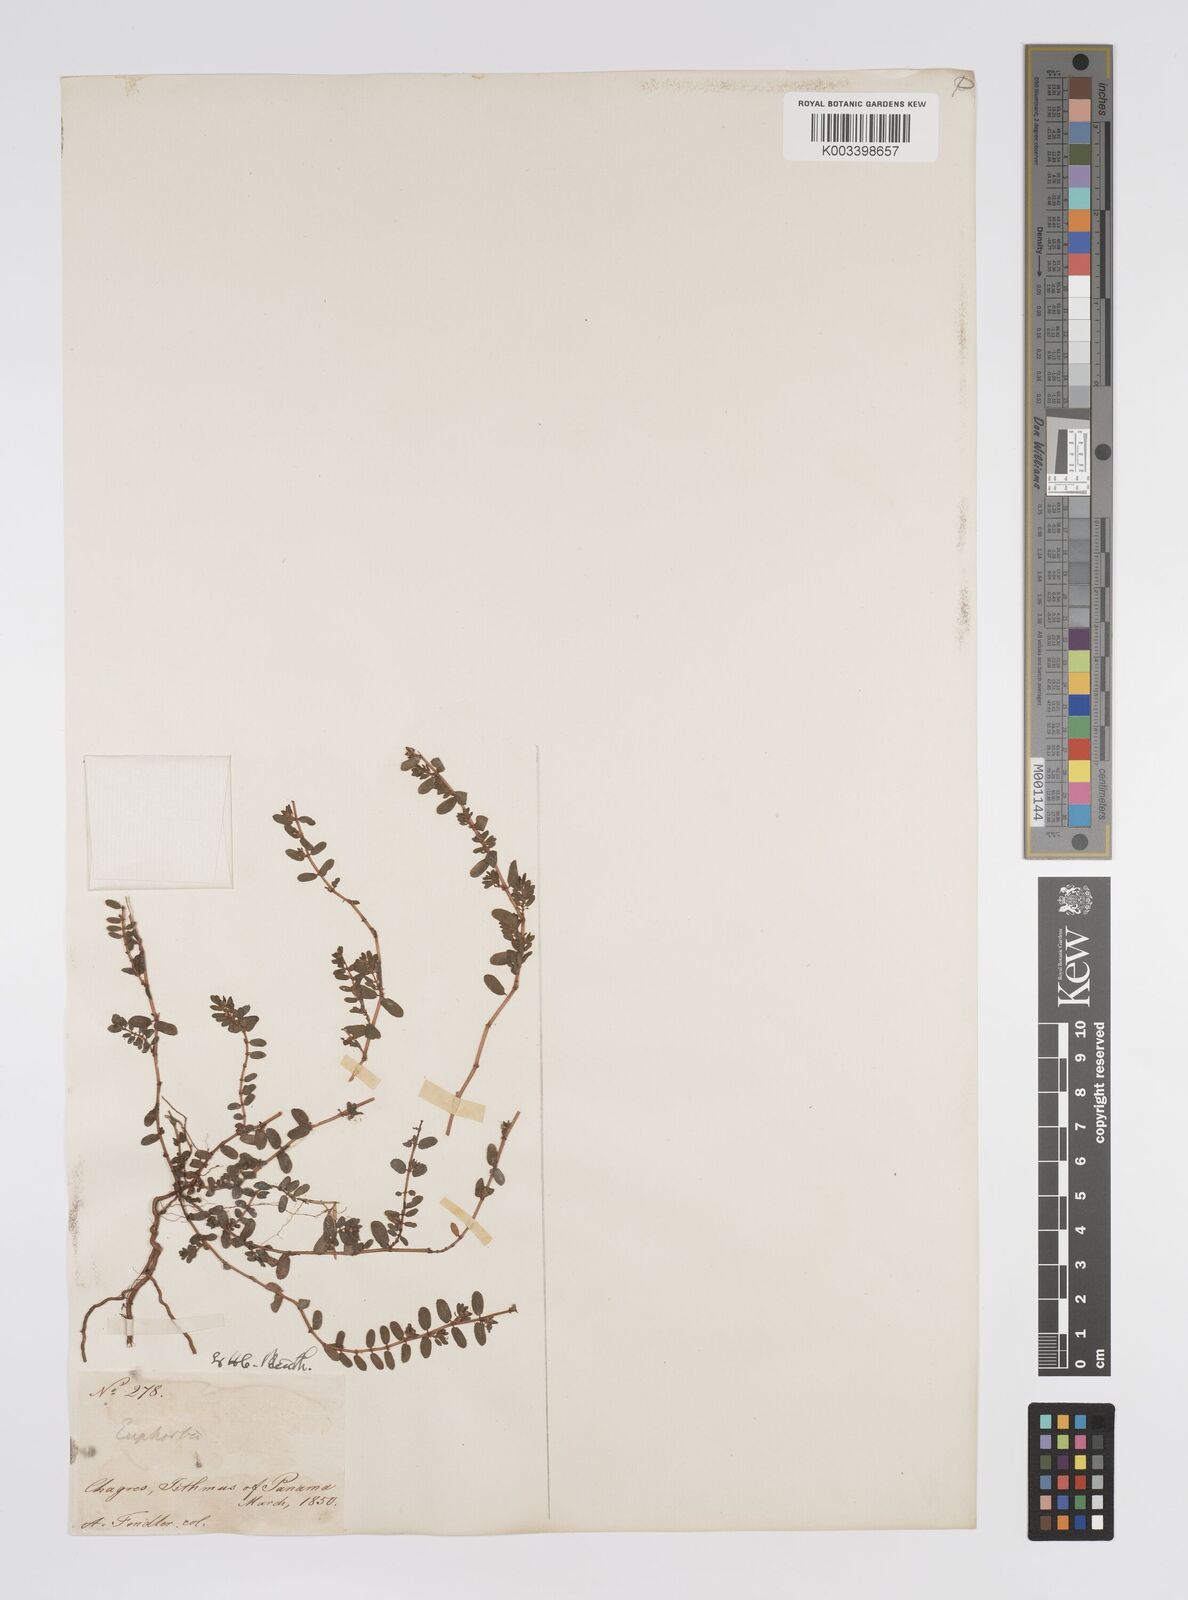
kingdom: Plantae
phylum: Tracheophyta
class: Magnoliopsida
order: Malpighiales
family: Euphorbiaceae
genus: Euphorbia
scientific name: Euphorbia
